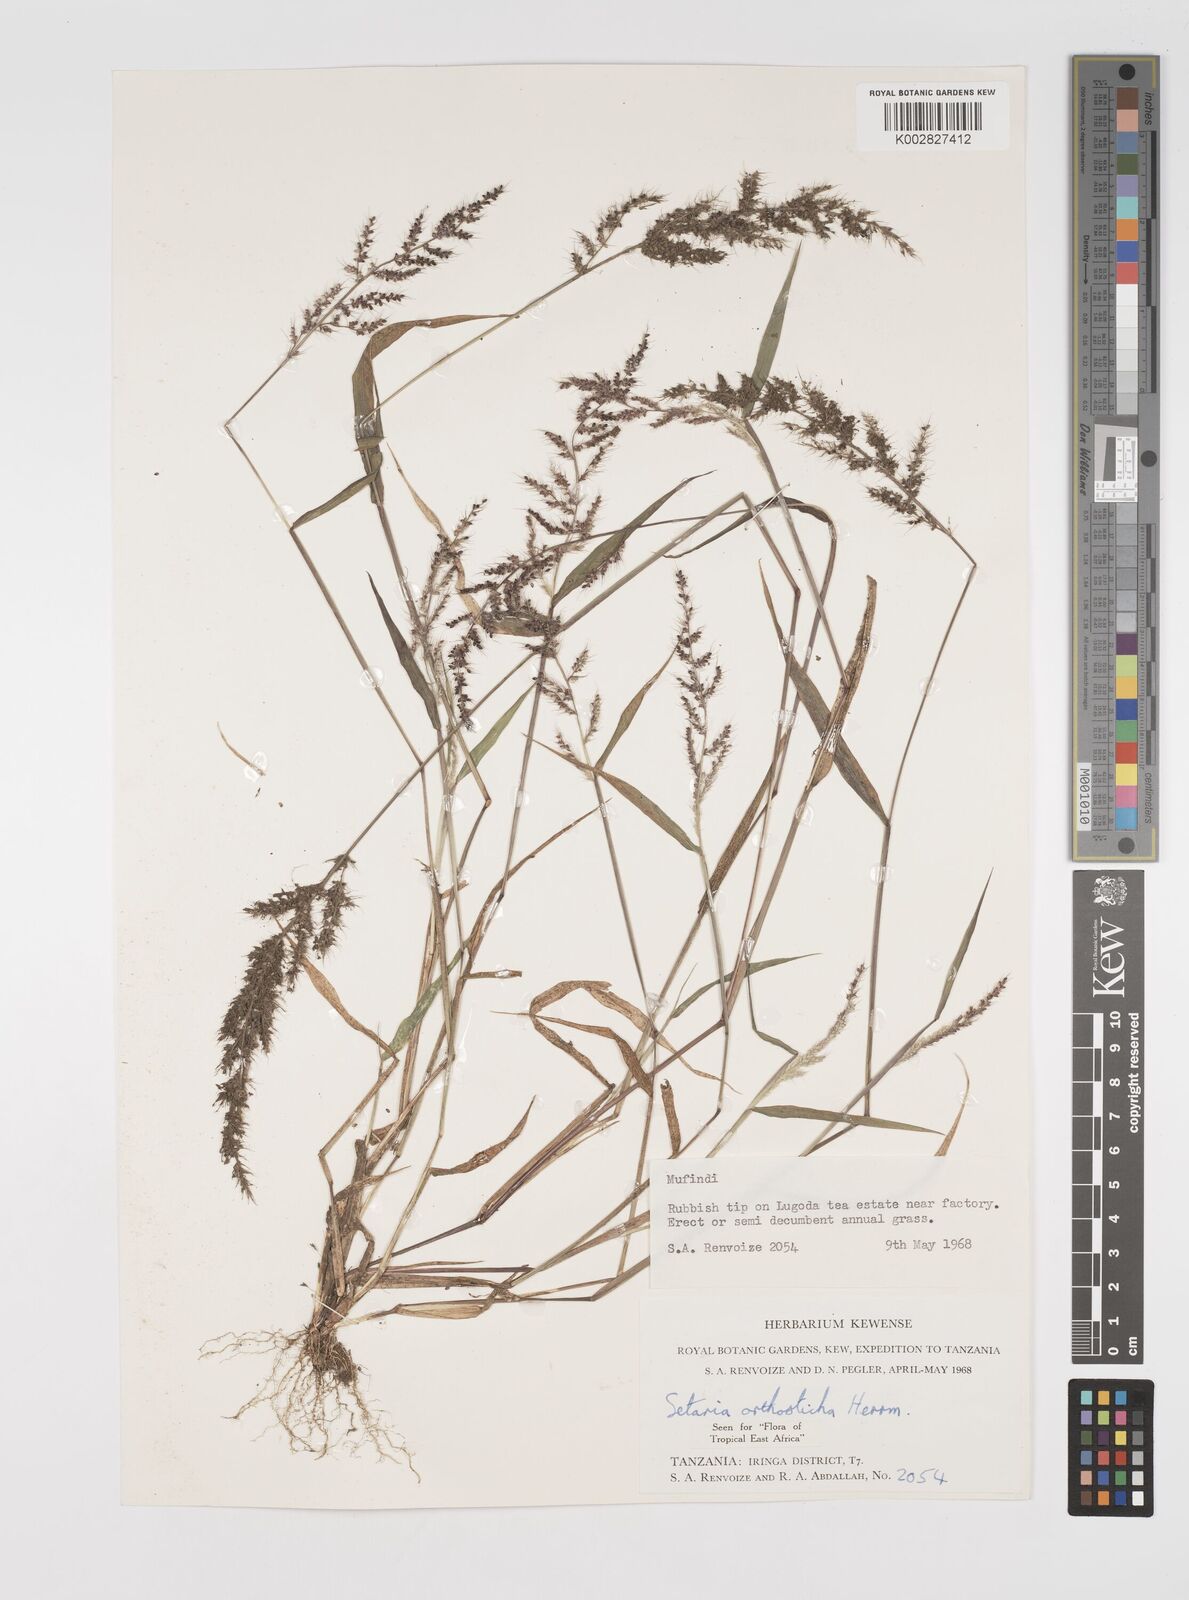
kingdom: Plantae
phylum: Tracheophyta
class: Liliopsida
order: Poales
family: Poaceae
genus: Setaria
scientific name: Setaria orthosticha
